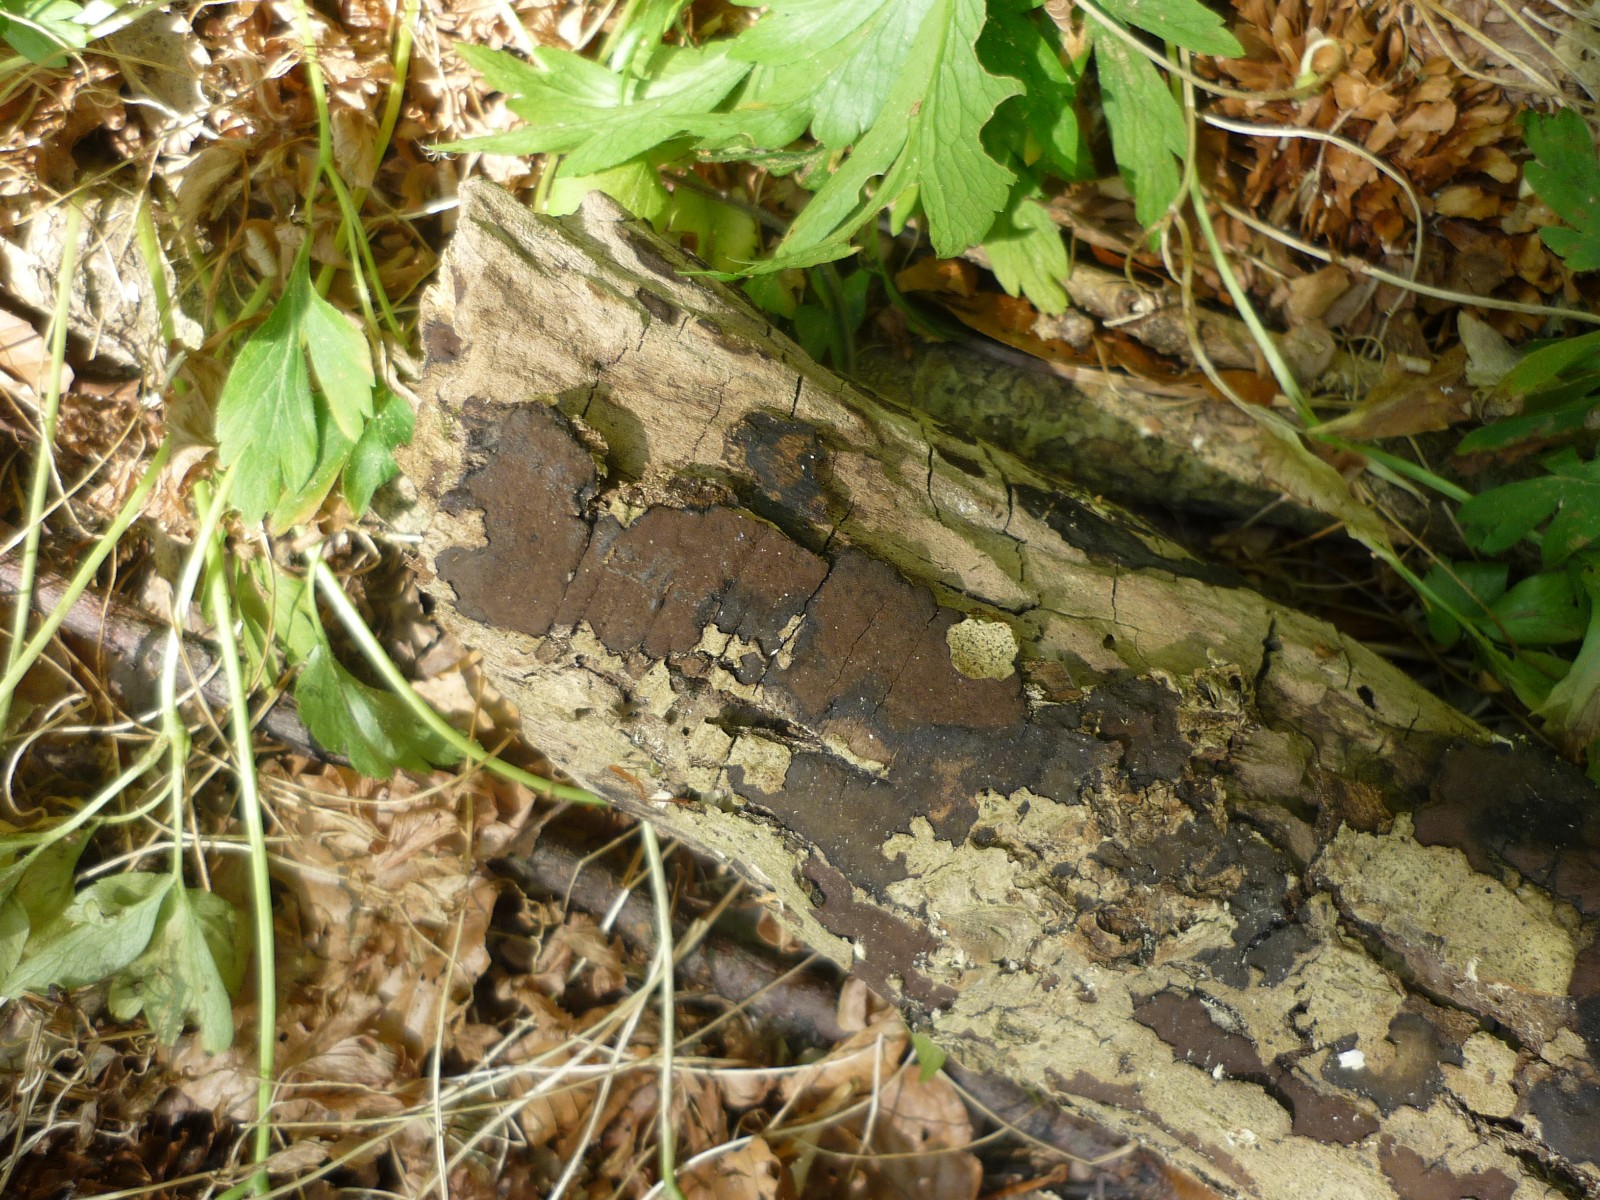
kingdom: Fungi
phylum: Ascomycota
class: Sordariomycetes
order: Xylariales
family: Hypoxylaceae
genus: Hypoxylon
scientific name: Hypoxylon petriniae
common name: nedsænket kulbær
